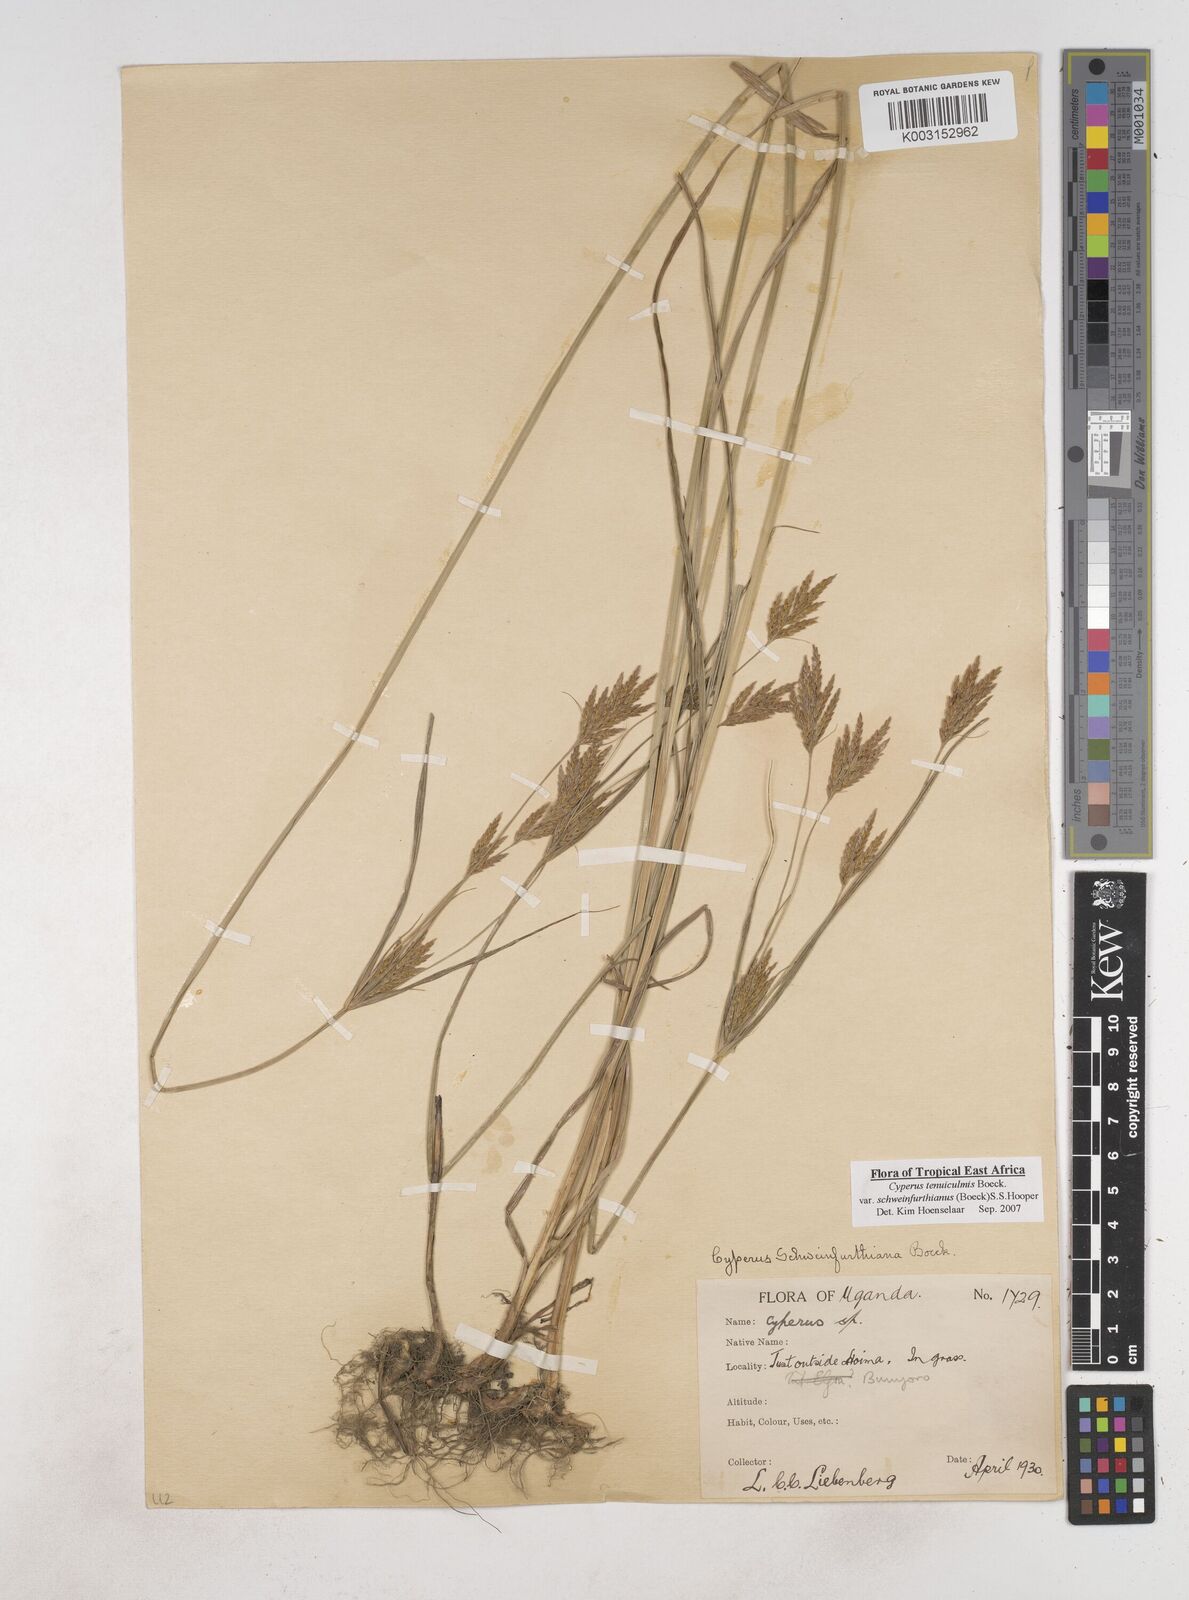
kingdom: Plantae
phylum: Tracheophyta
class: Liliopsida
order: Poales
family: Cyperaceae
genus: Cyperus
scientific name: Cyperus tenuiculmis
